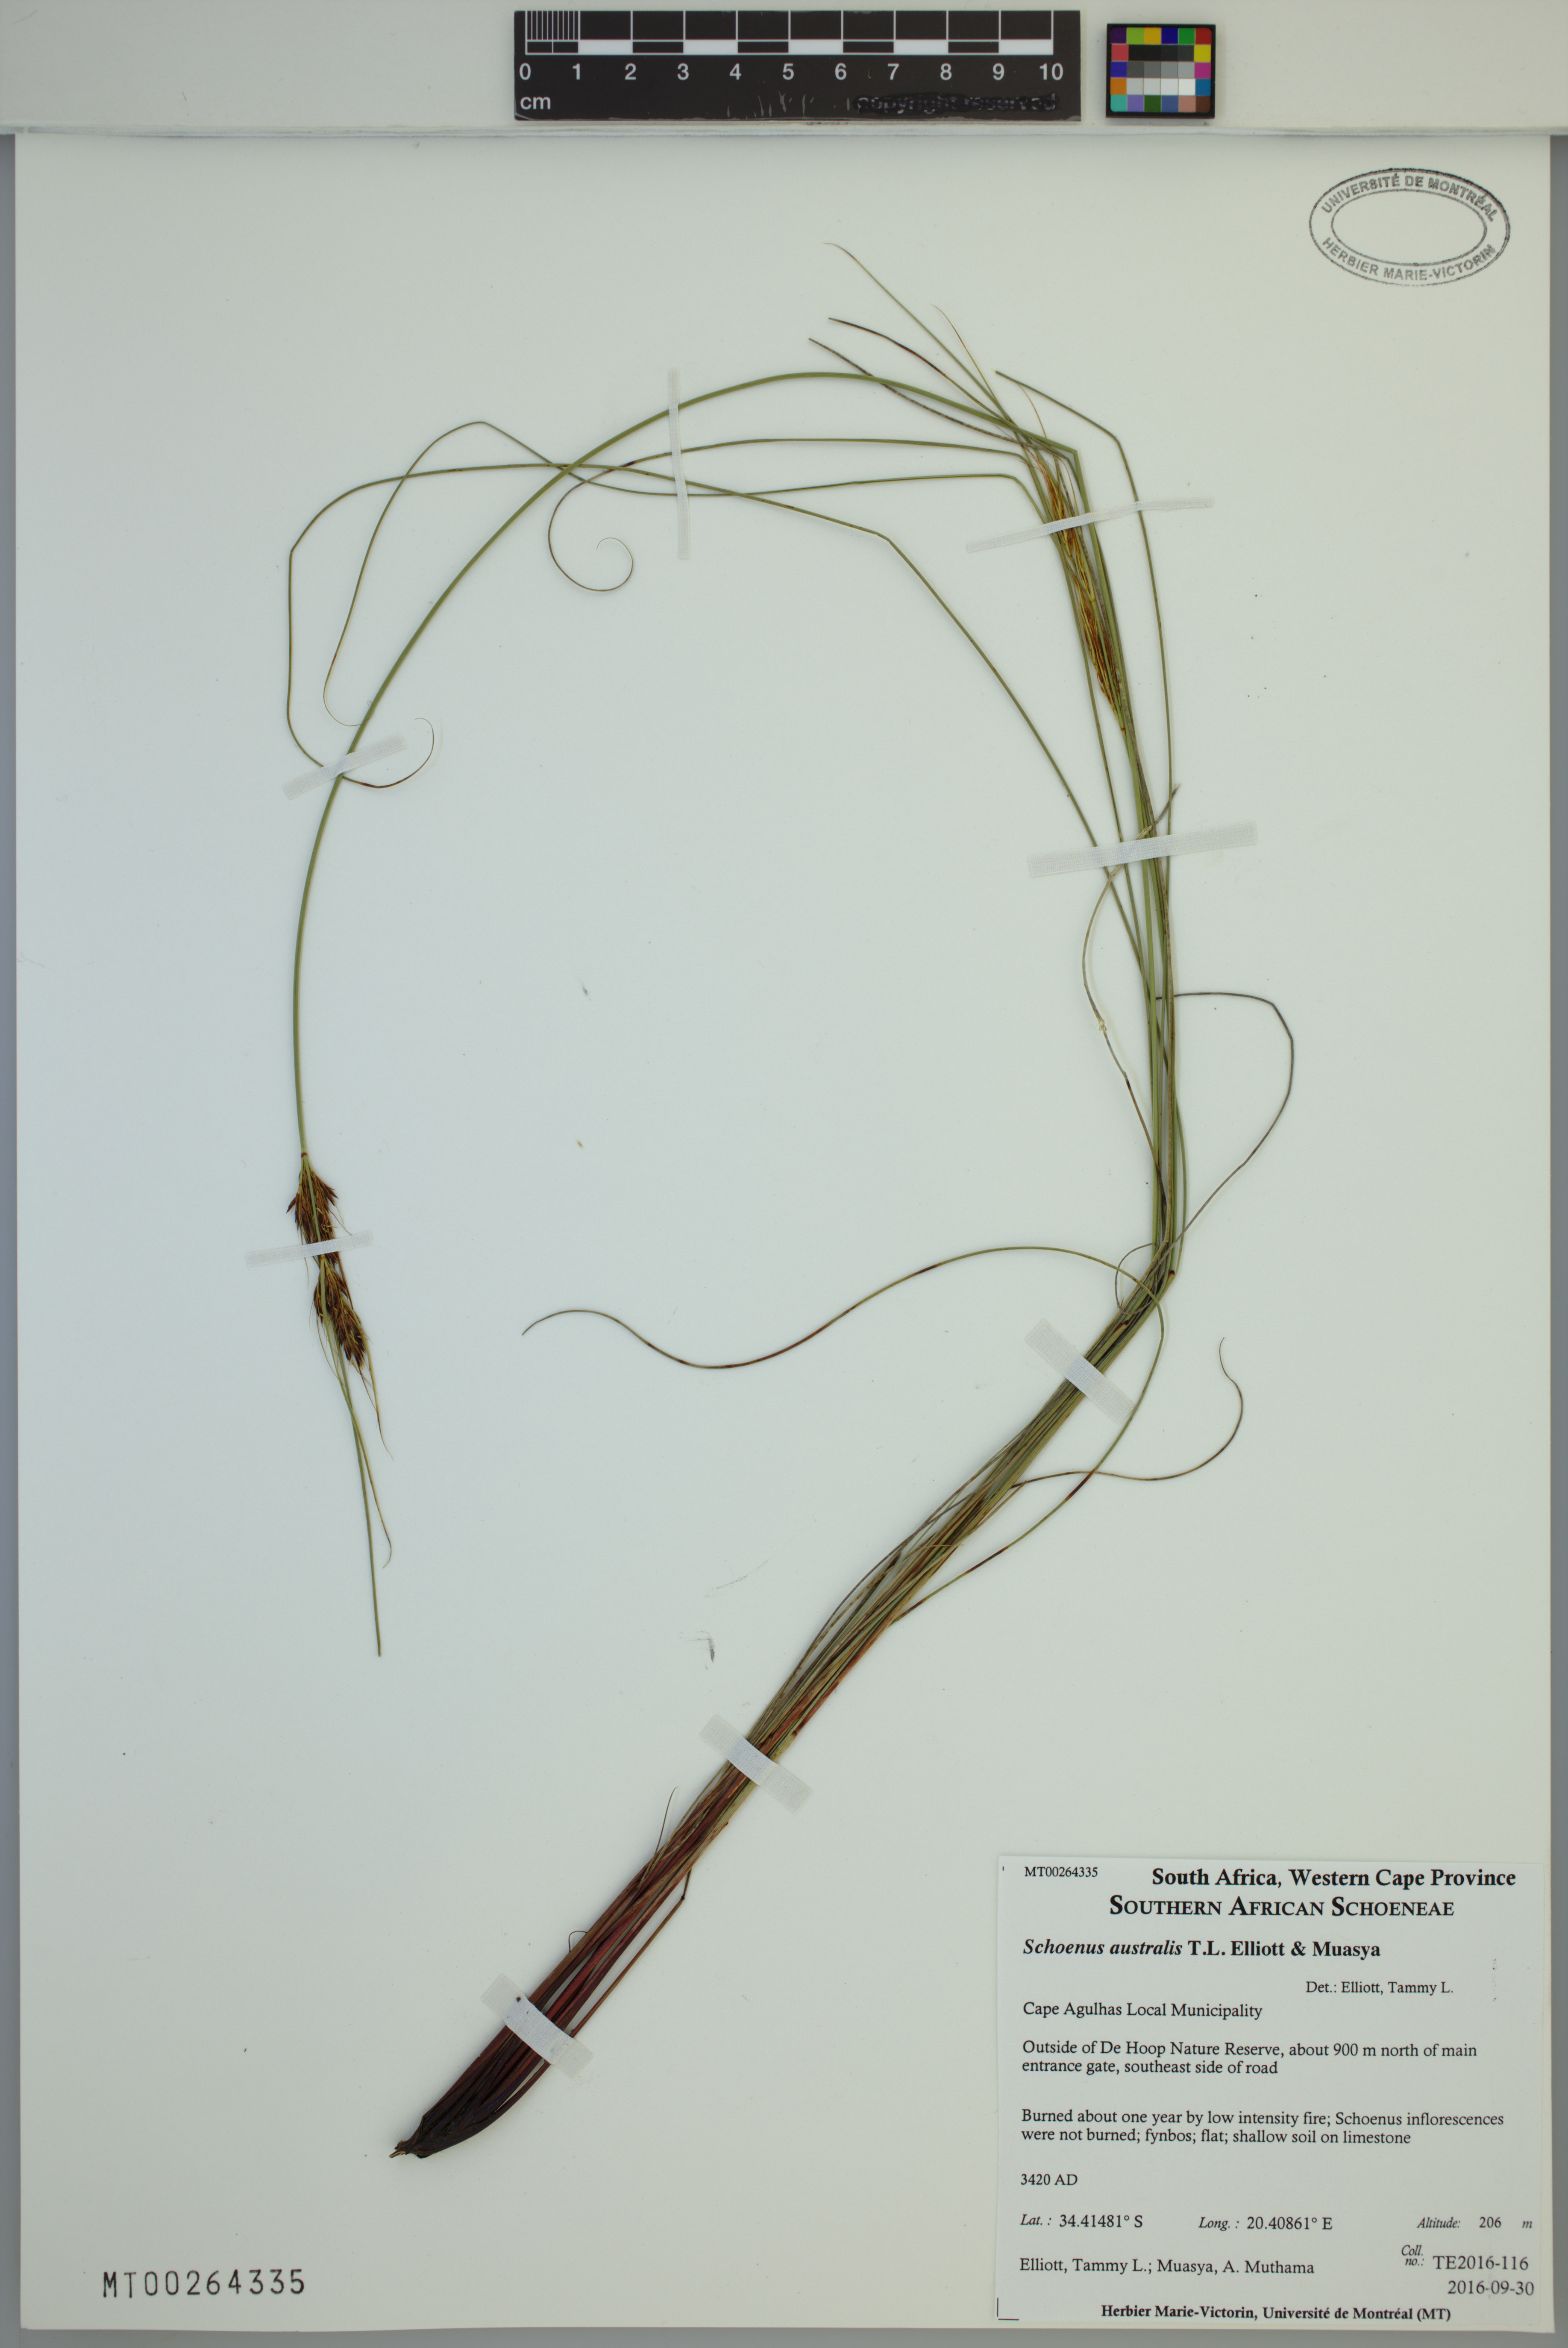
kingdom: Plantae
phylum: Tracheophyta
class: Liliopsida
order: Poales
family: Cyperaceae
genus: Schoenus
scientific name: Schoenus australis
